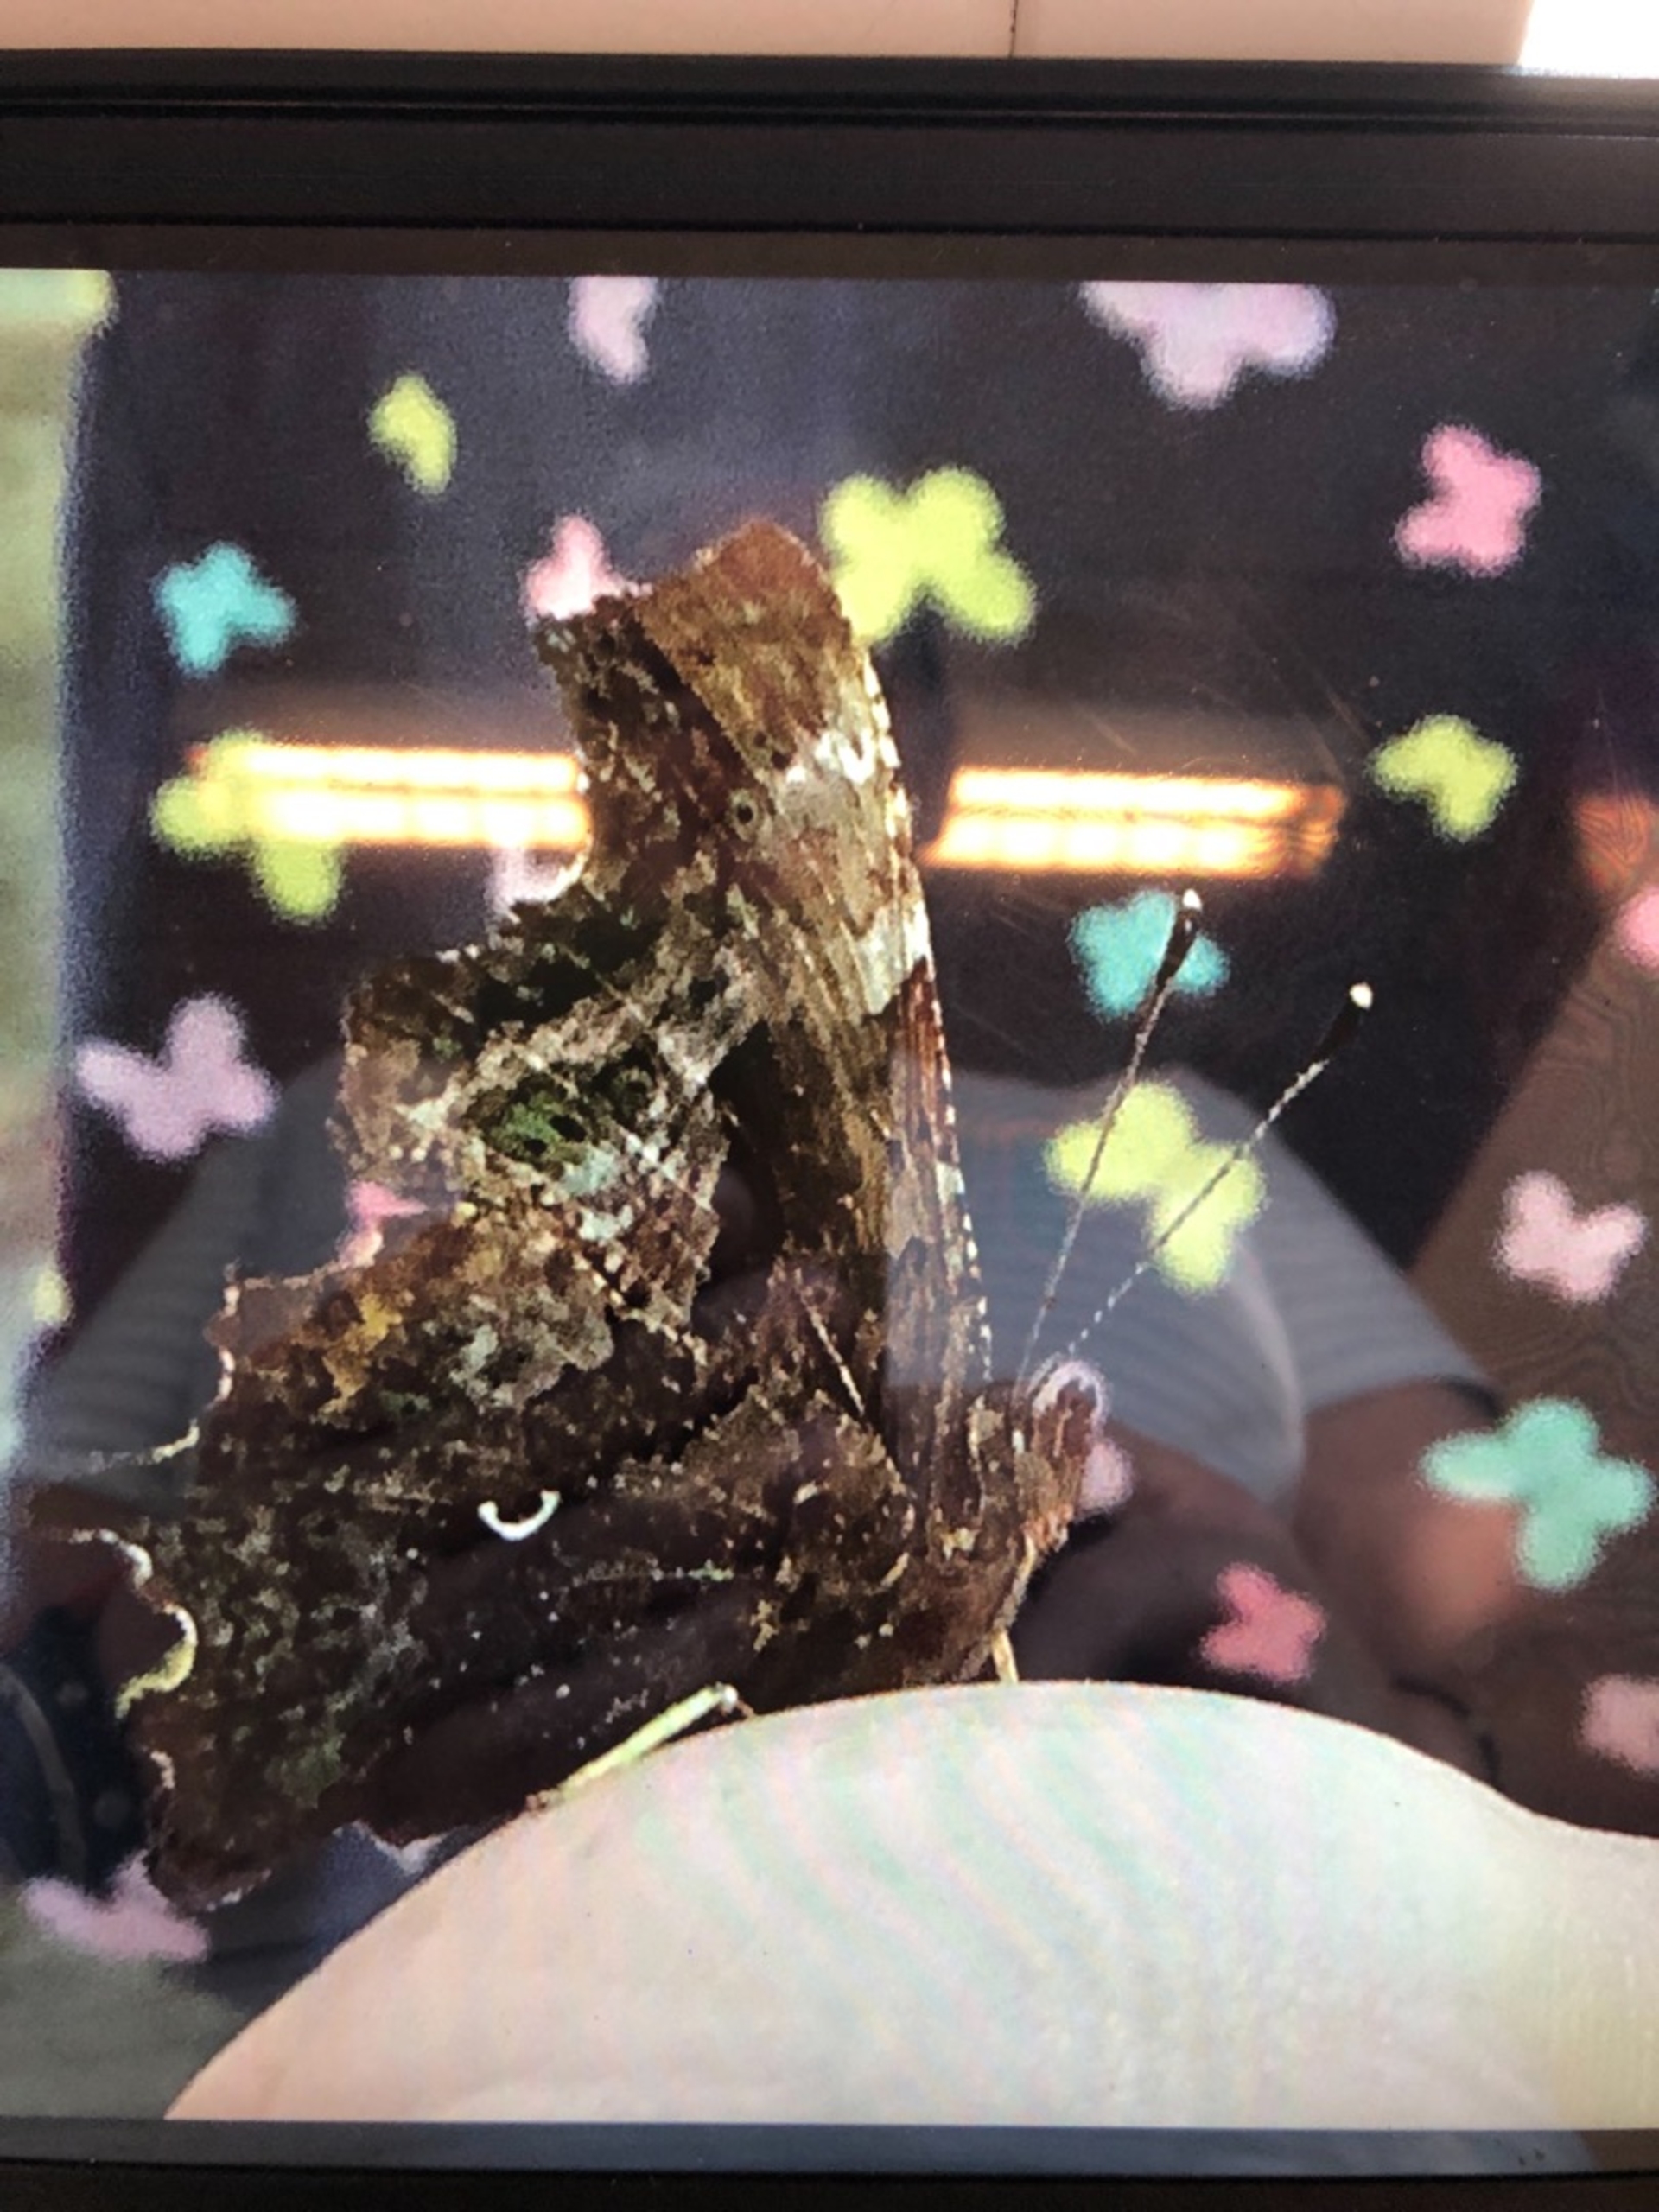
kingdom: Animalia
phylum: Arthropoda
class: Insecta
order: Lepidoptera
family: Nymphalidae
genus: Polygonia
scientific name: Polygonia c-album
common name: Det hvide C
